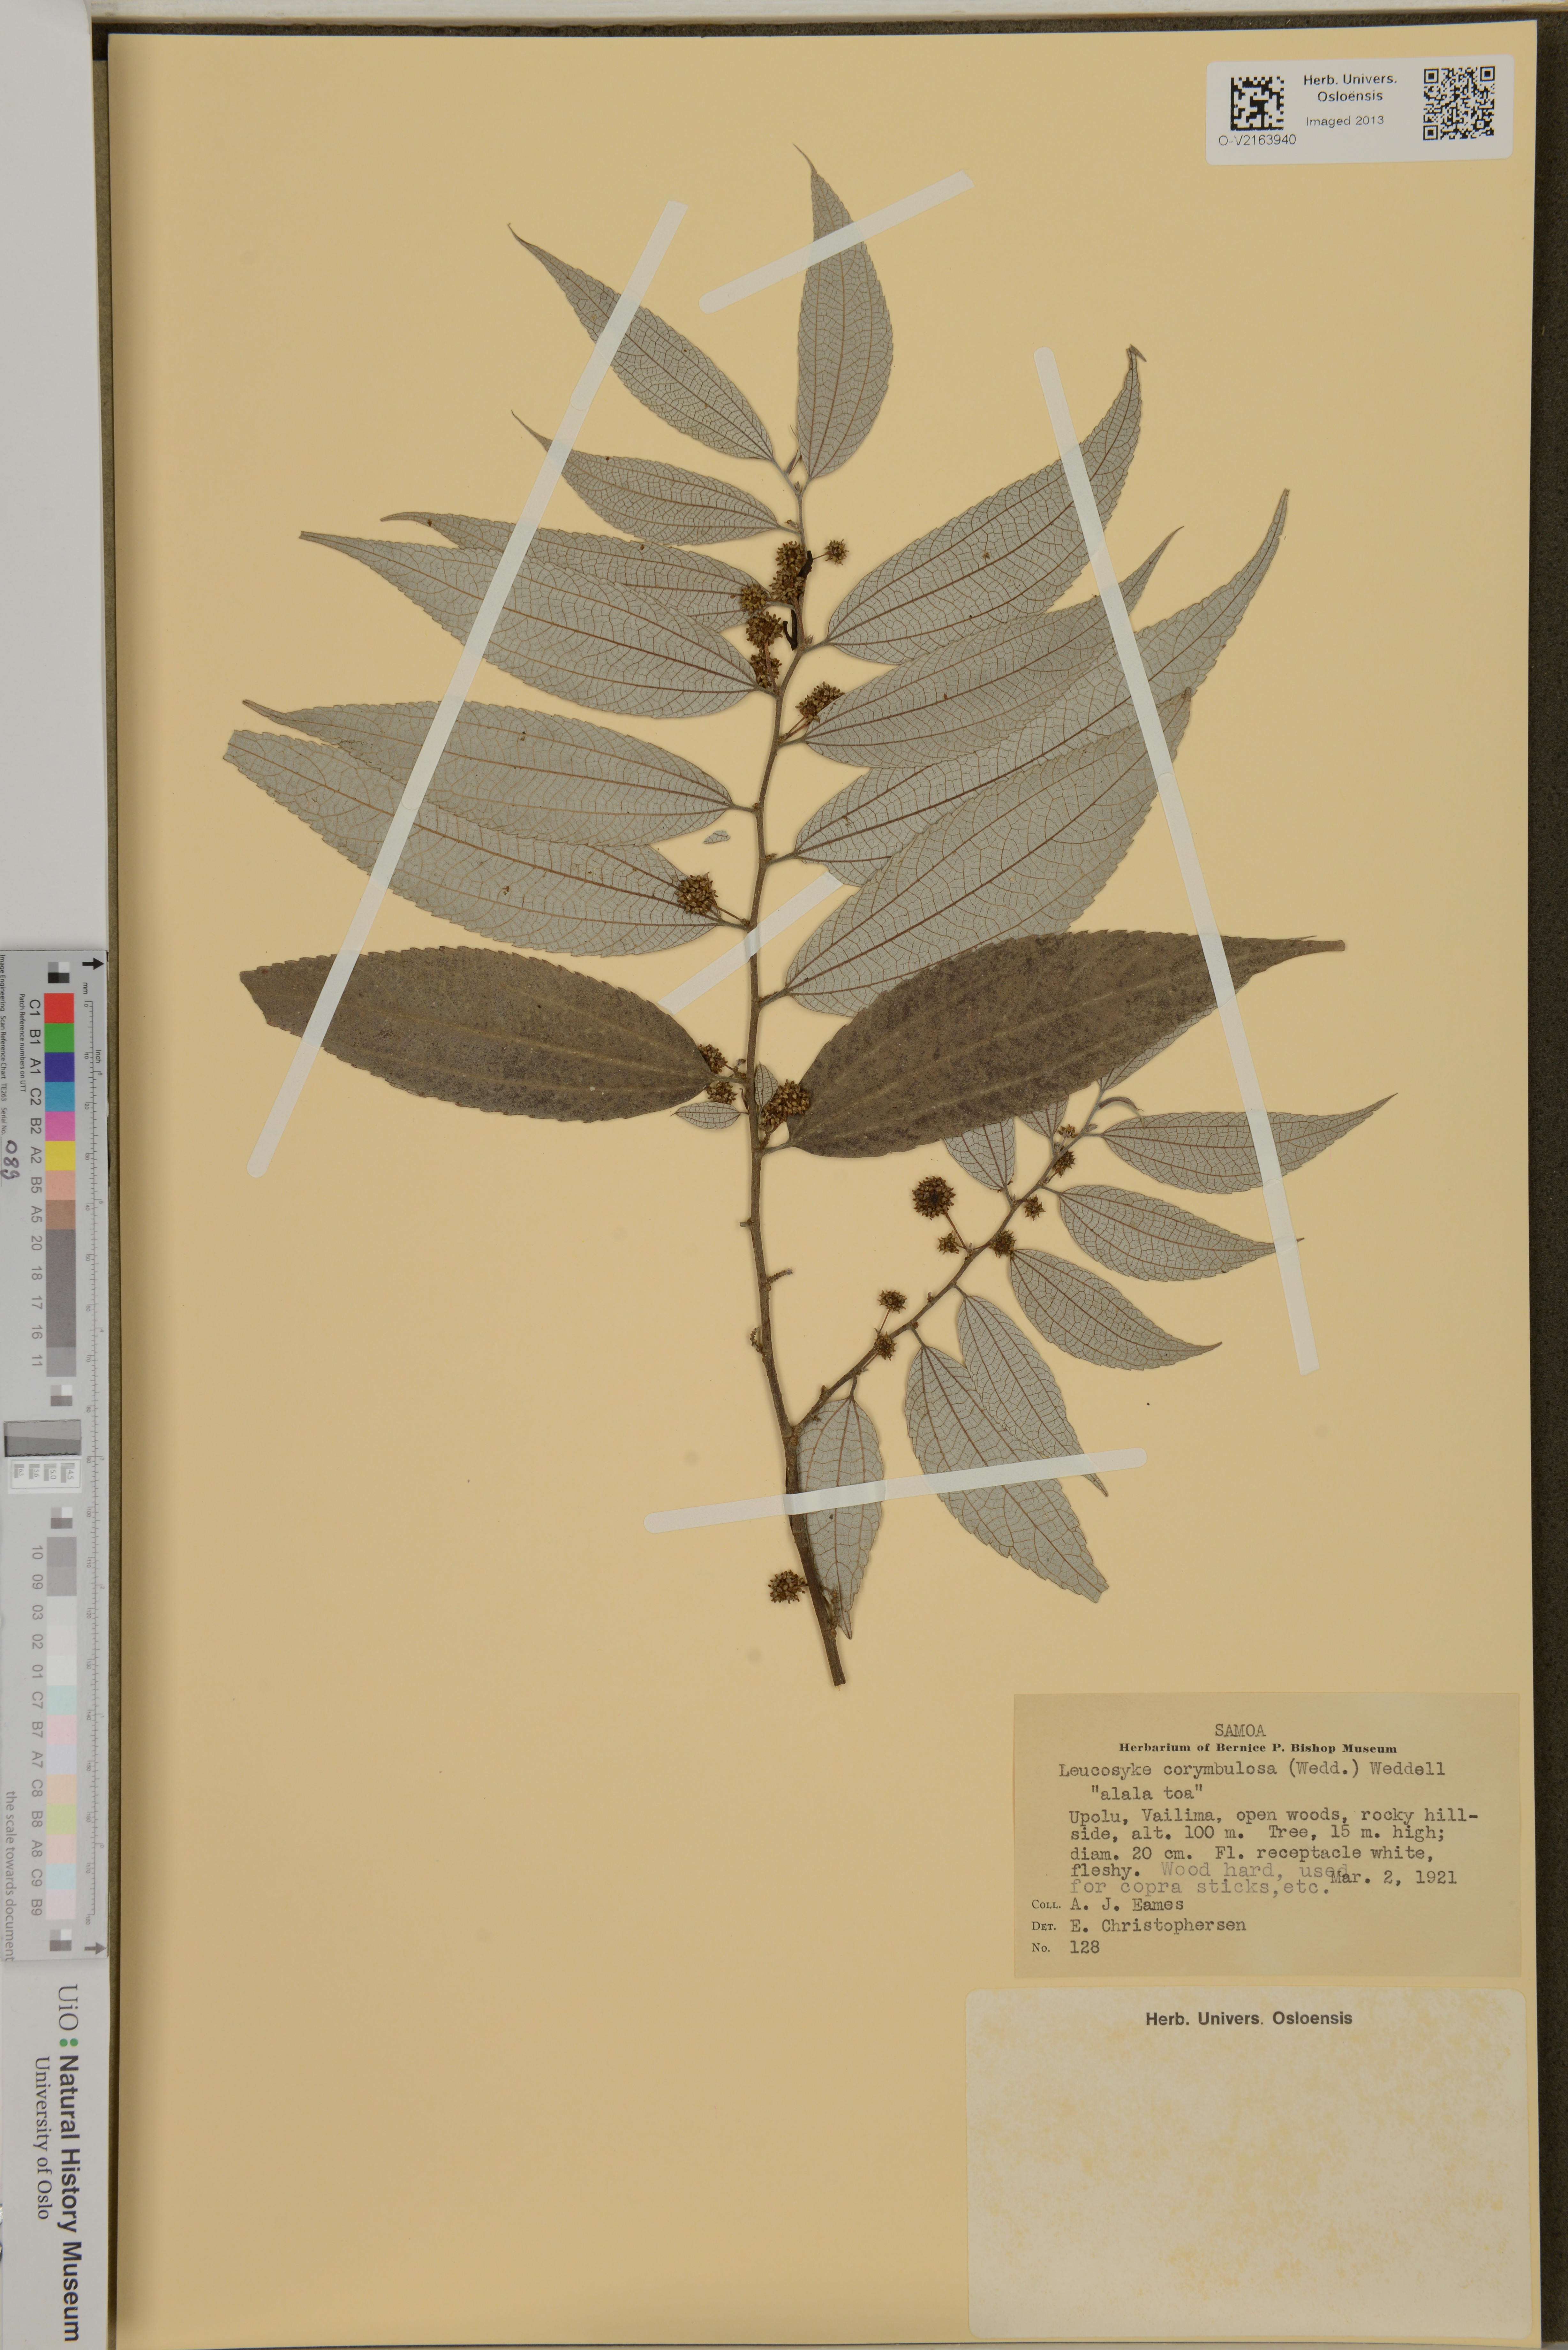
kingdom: Plantae
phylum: Tracheophyta
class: Magnoliopsida
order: Rosales
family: Urticaceae
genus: Leucosyke
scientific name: Leucosyke corymbulosa
